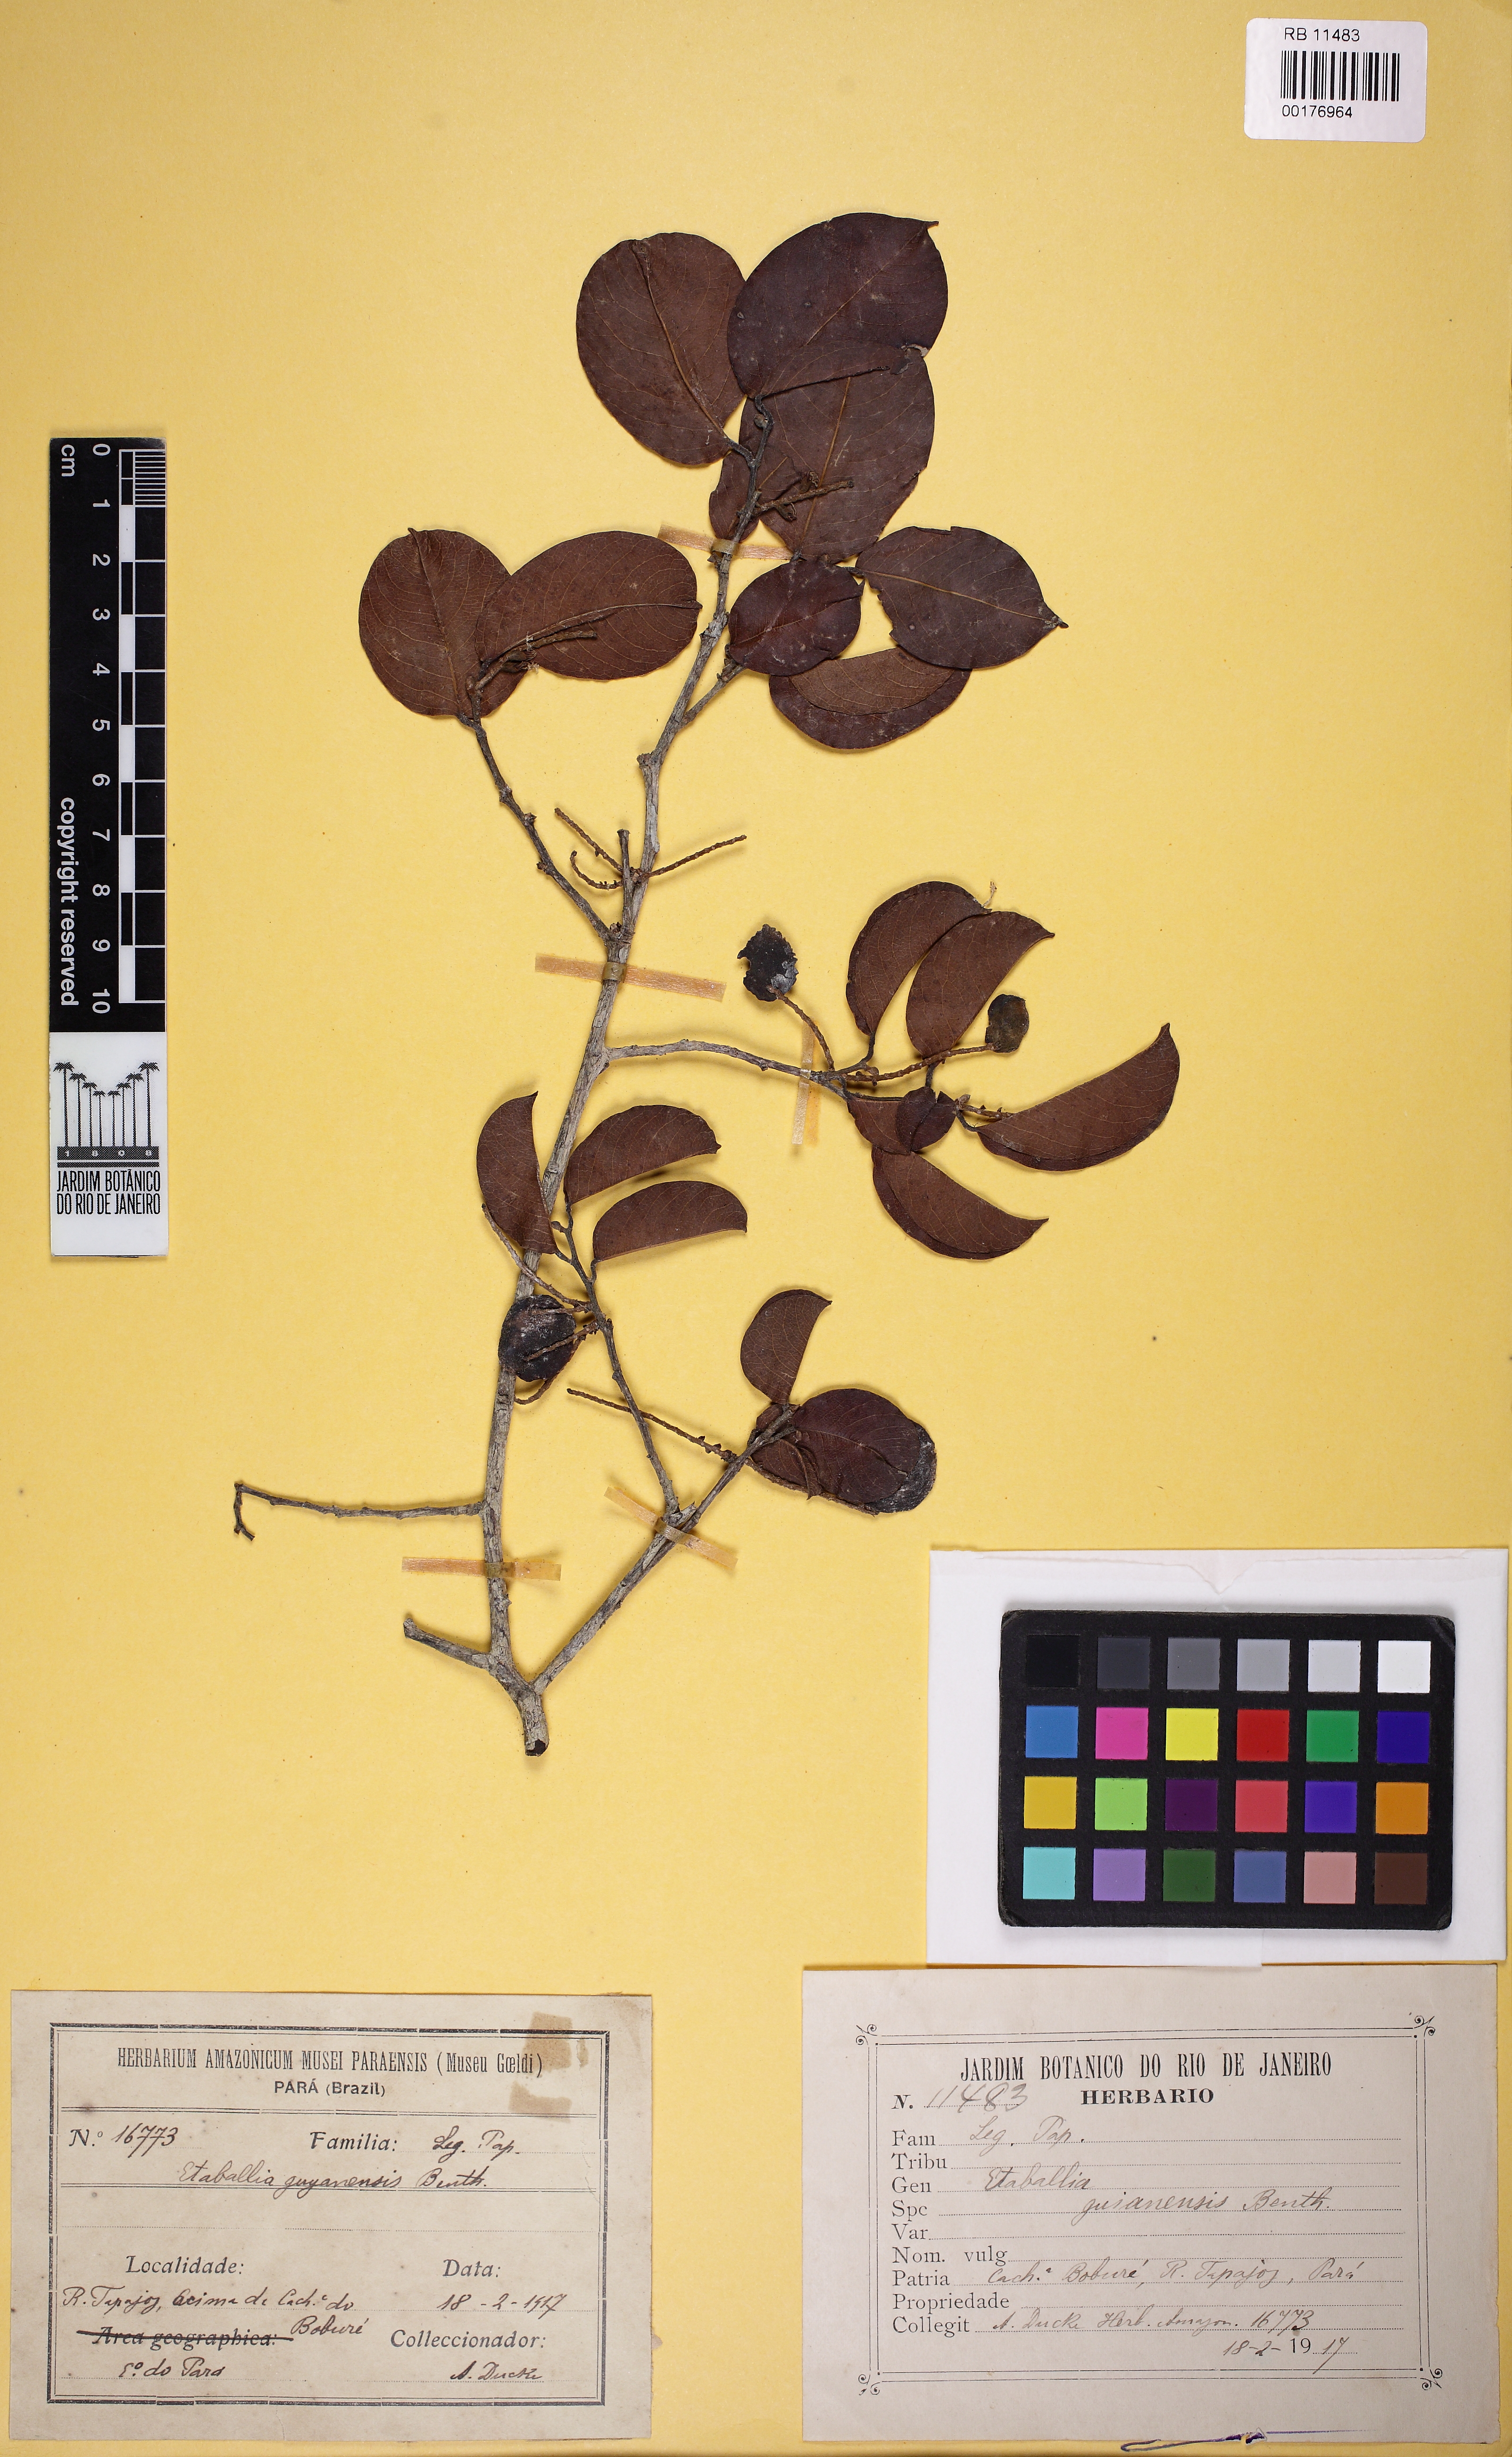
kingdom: Plantae
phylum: Tracheophyta
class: Magnoliopsida
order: Fabales
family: Fabaceae
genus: Pterocarpus
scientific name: Pterocarpus dubius
